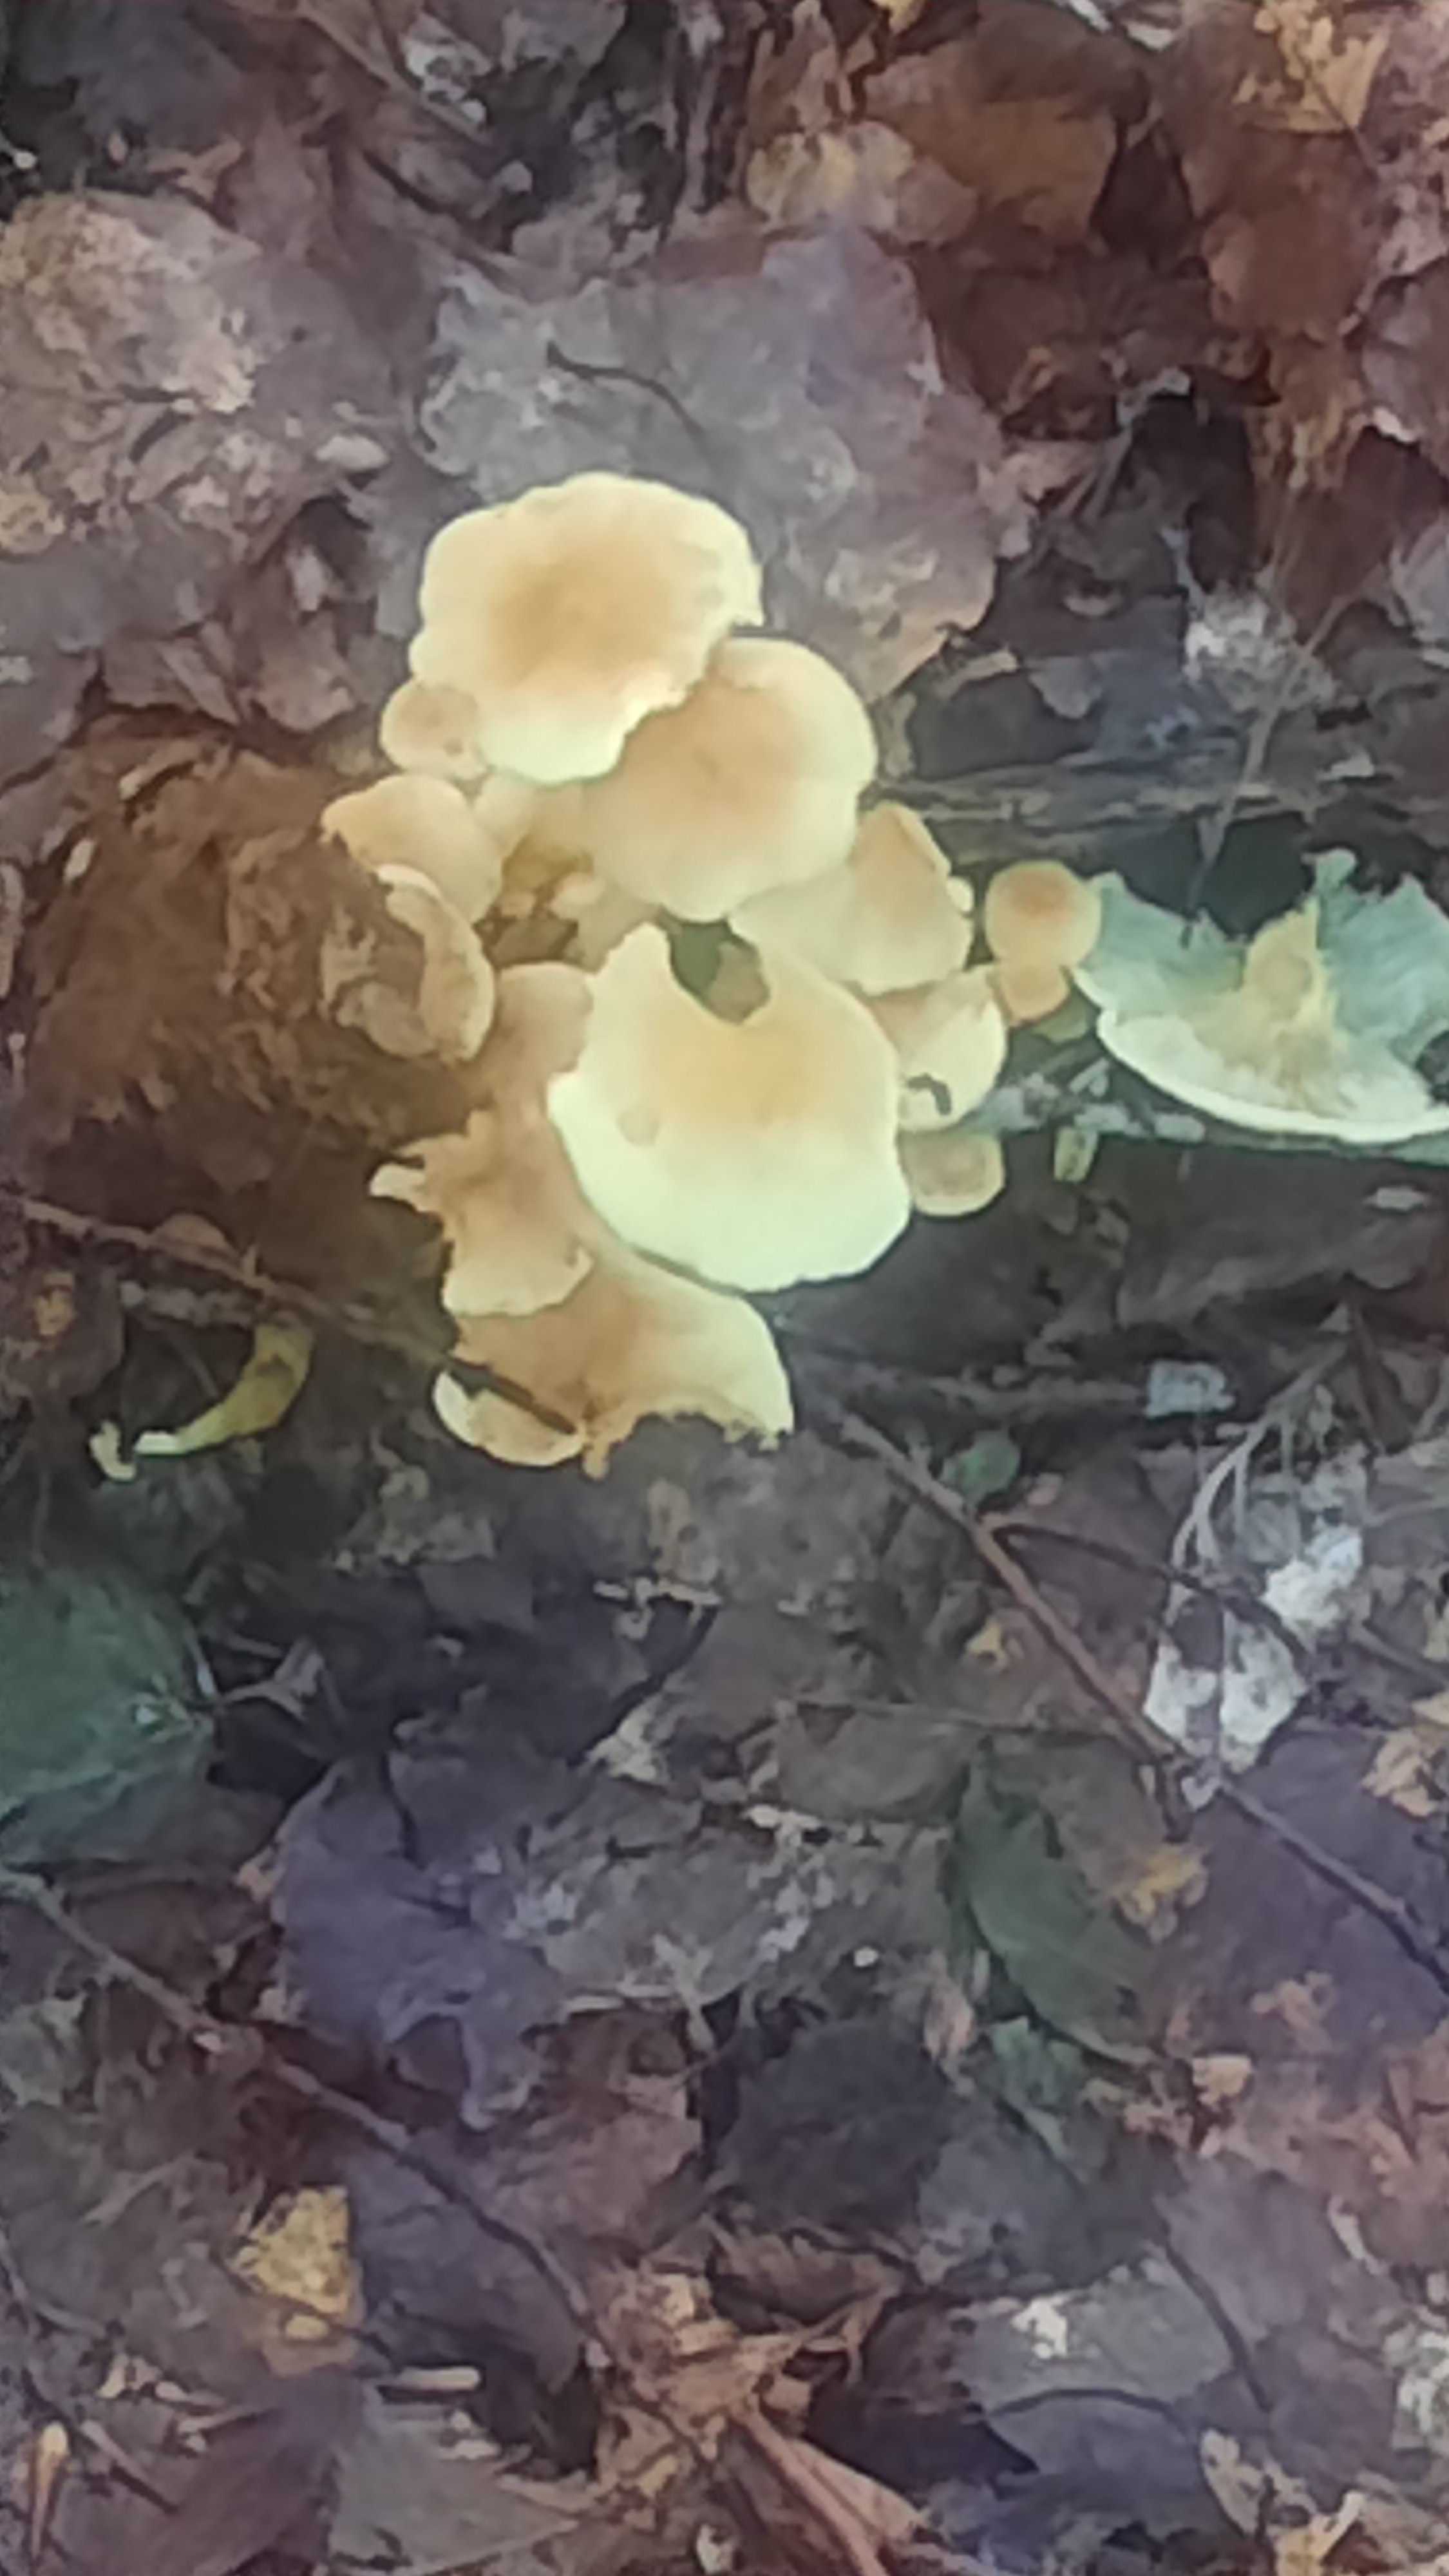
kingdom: Fungi
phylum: Basidiomycota
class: Agaricomycetes
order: Agaricales
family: Strophariaceae
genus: Hypholoma
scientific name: Hypholoma fasciculare
